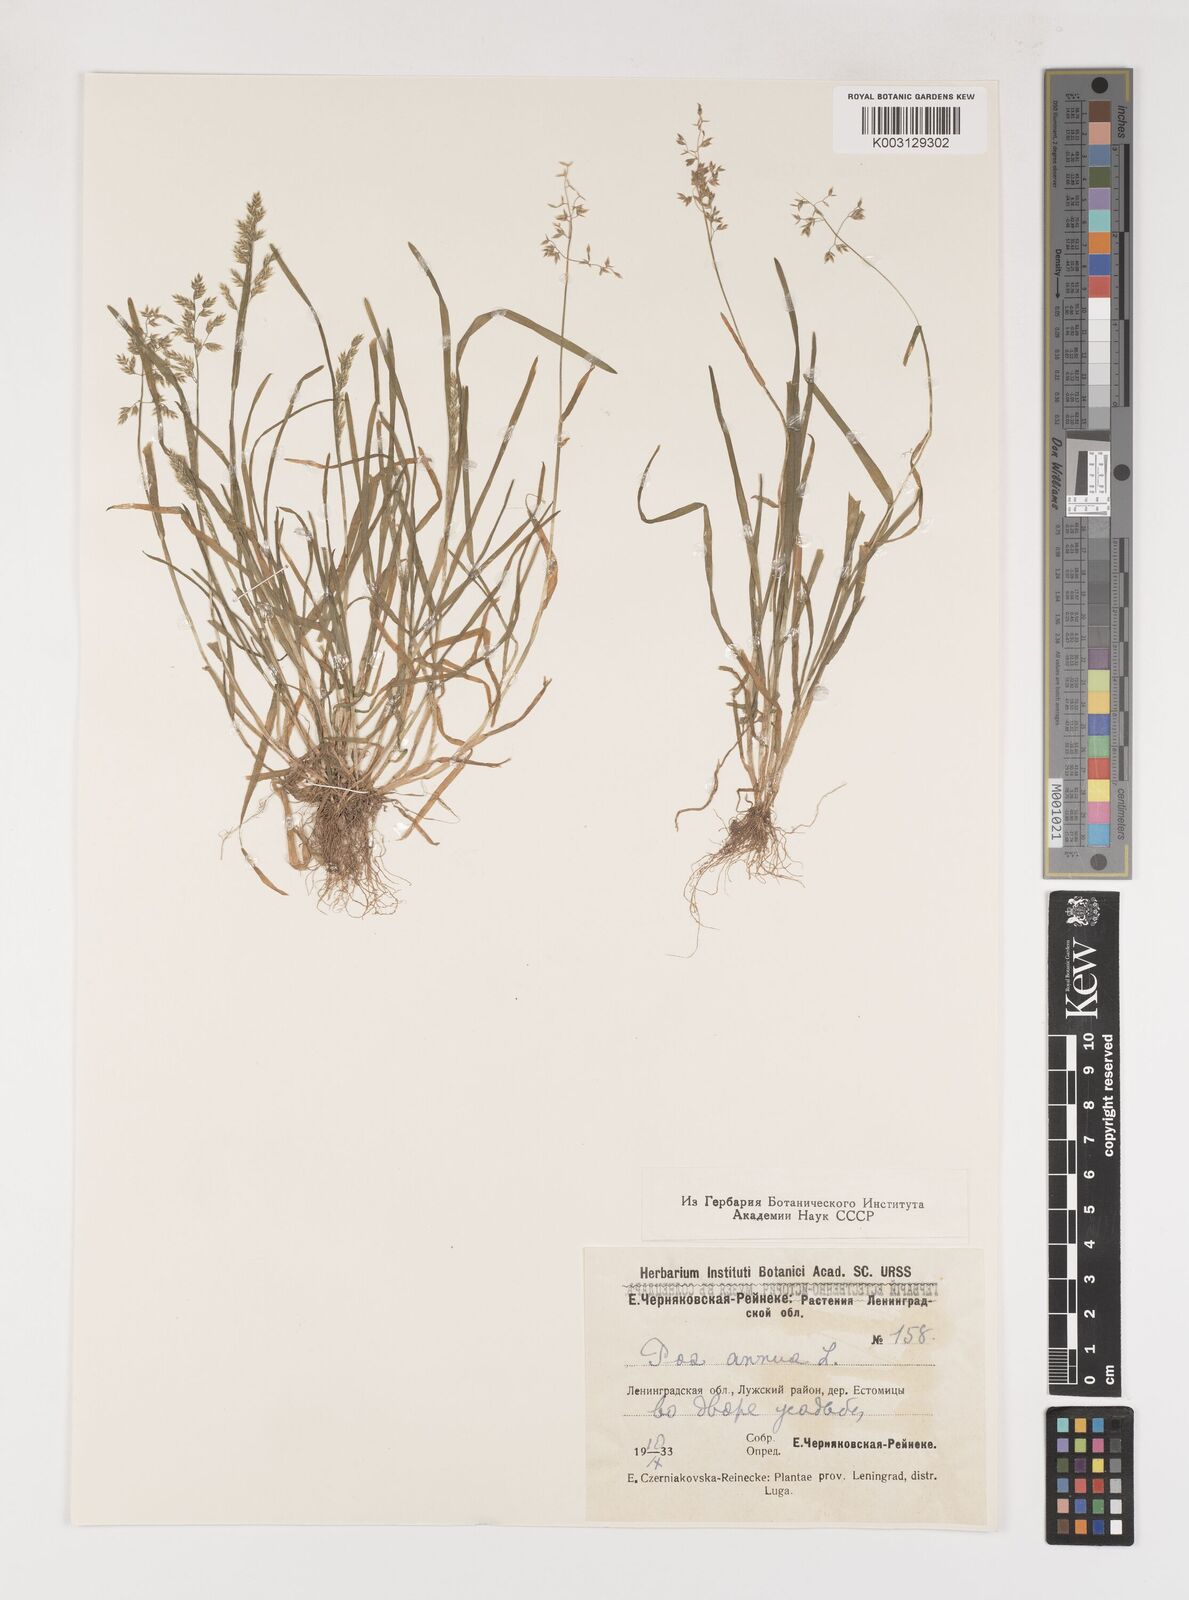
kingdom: Plantae
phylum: Tracheophyta
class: Liliopsida
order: Poales
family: Poaceae
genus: Poa
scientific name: Poa annua
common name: Annual bluegrass
